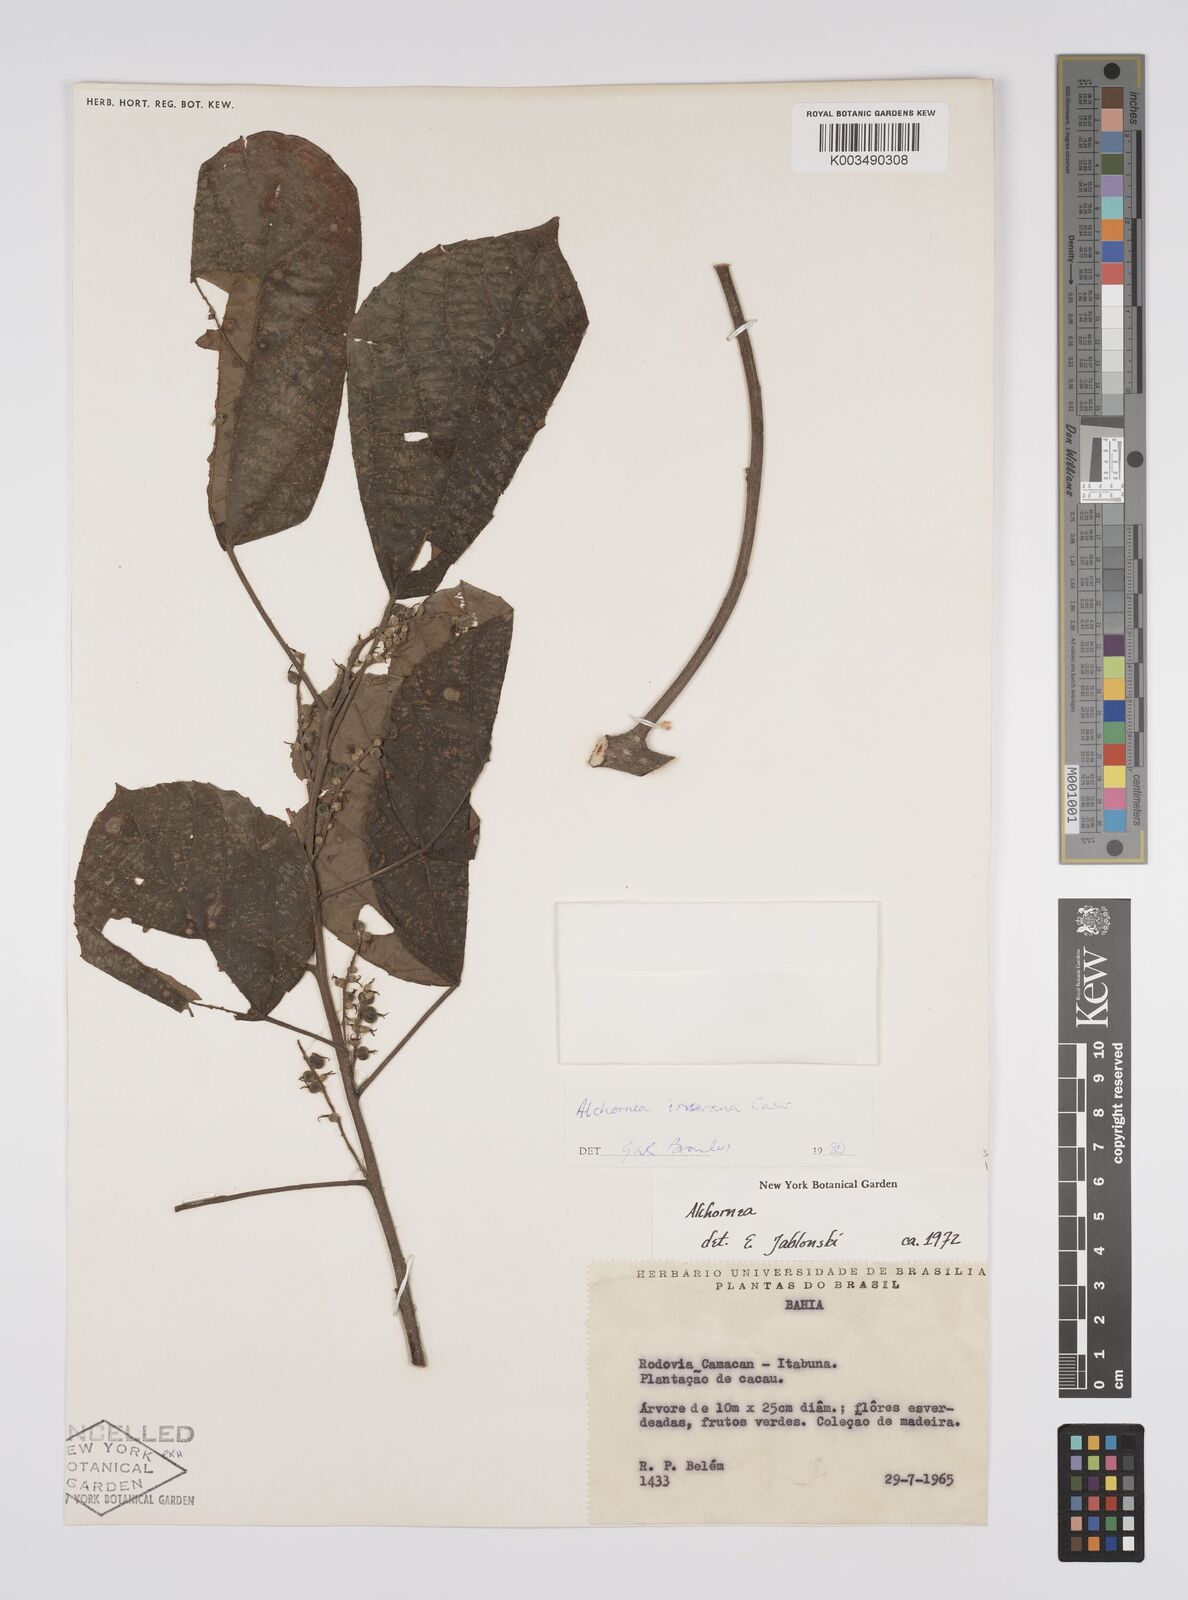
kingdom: Plantae
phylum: Tracheophyta
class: Magnoliopsida
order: Malpighiales
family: Euphorbiaceae
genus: Alchornea
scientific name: Alchornea glandulosa
